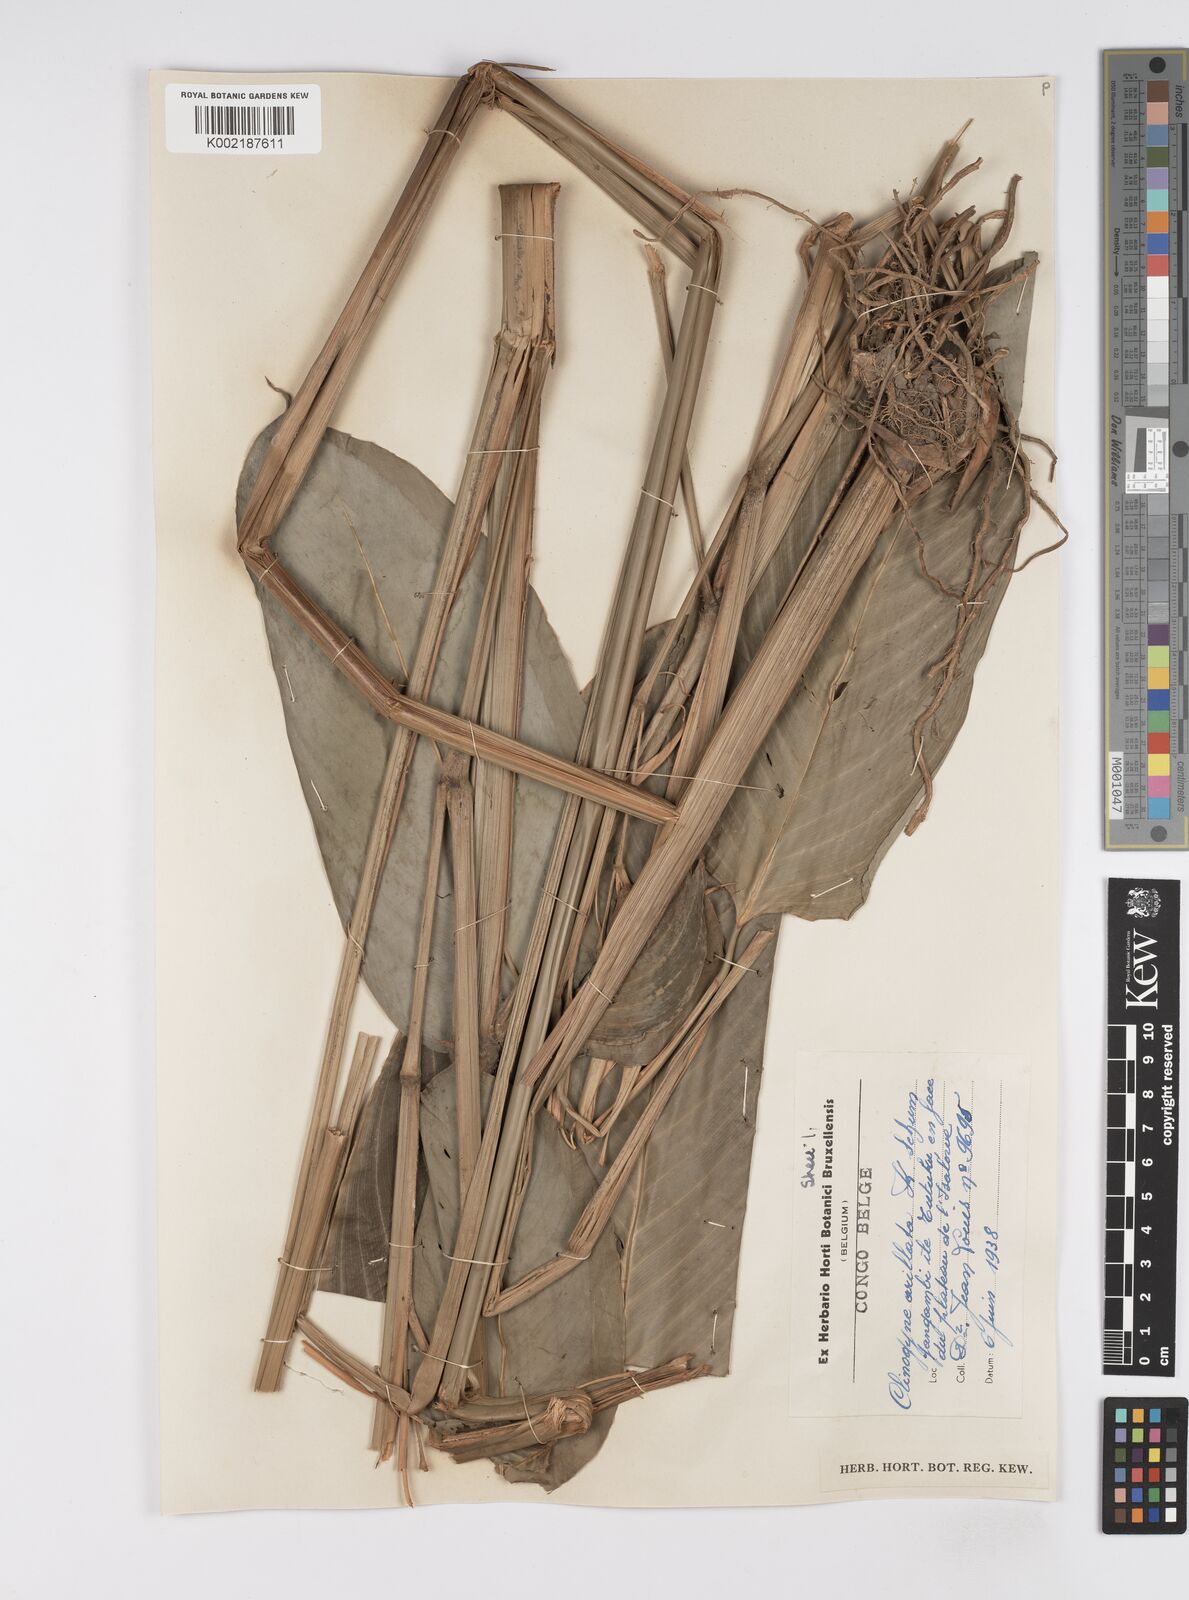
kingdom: Plantae
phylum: Tracheophyta
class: Liliopsida
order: Zingiberales
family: Marantaceae
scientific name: Marantaceae
